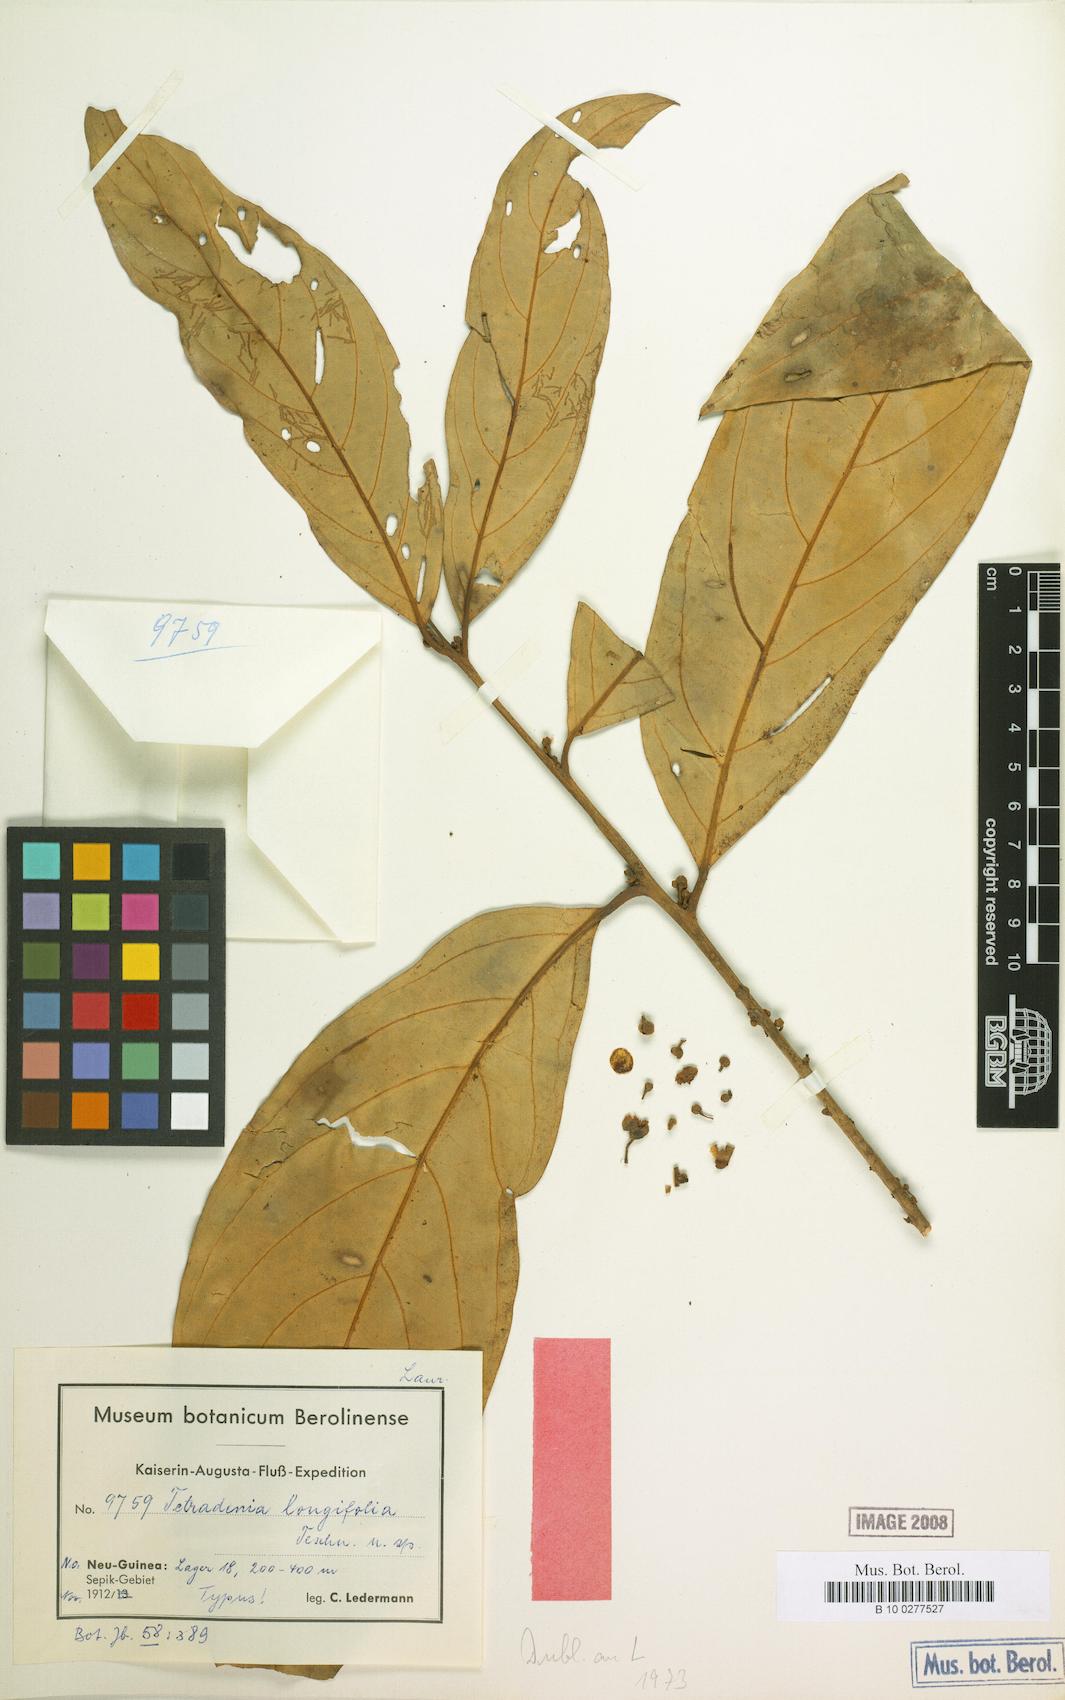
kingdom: Plantae
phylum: Tracheophyta
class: Magnoliopsida
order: Laurales
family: Lauraceae
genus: Neolitsea
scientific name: Neolitsea longifolia
